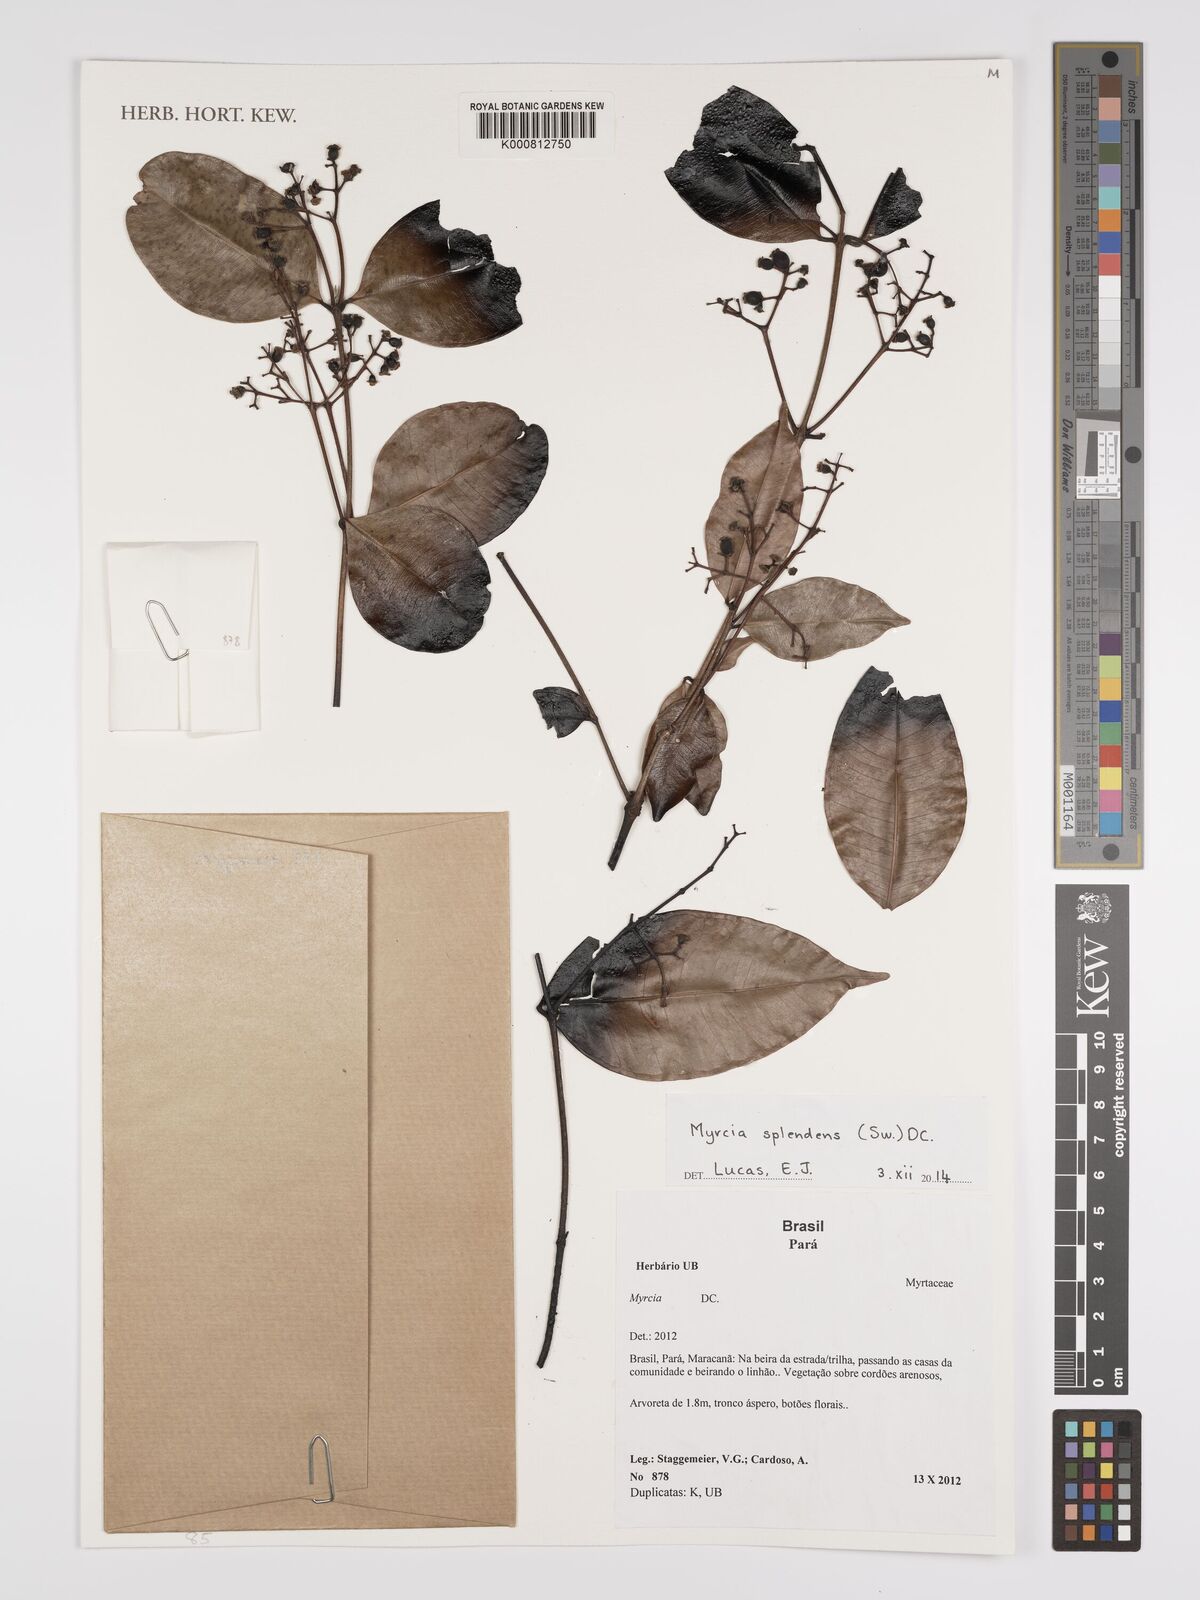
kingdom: Plantae
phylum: Tracheophyta
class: Magnoliopsida
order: Myrtales
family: Myrtaceae
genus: Myrcia
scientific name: Myrcia splendens
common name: Surinam cherry
